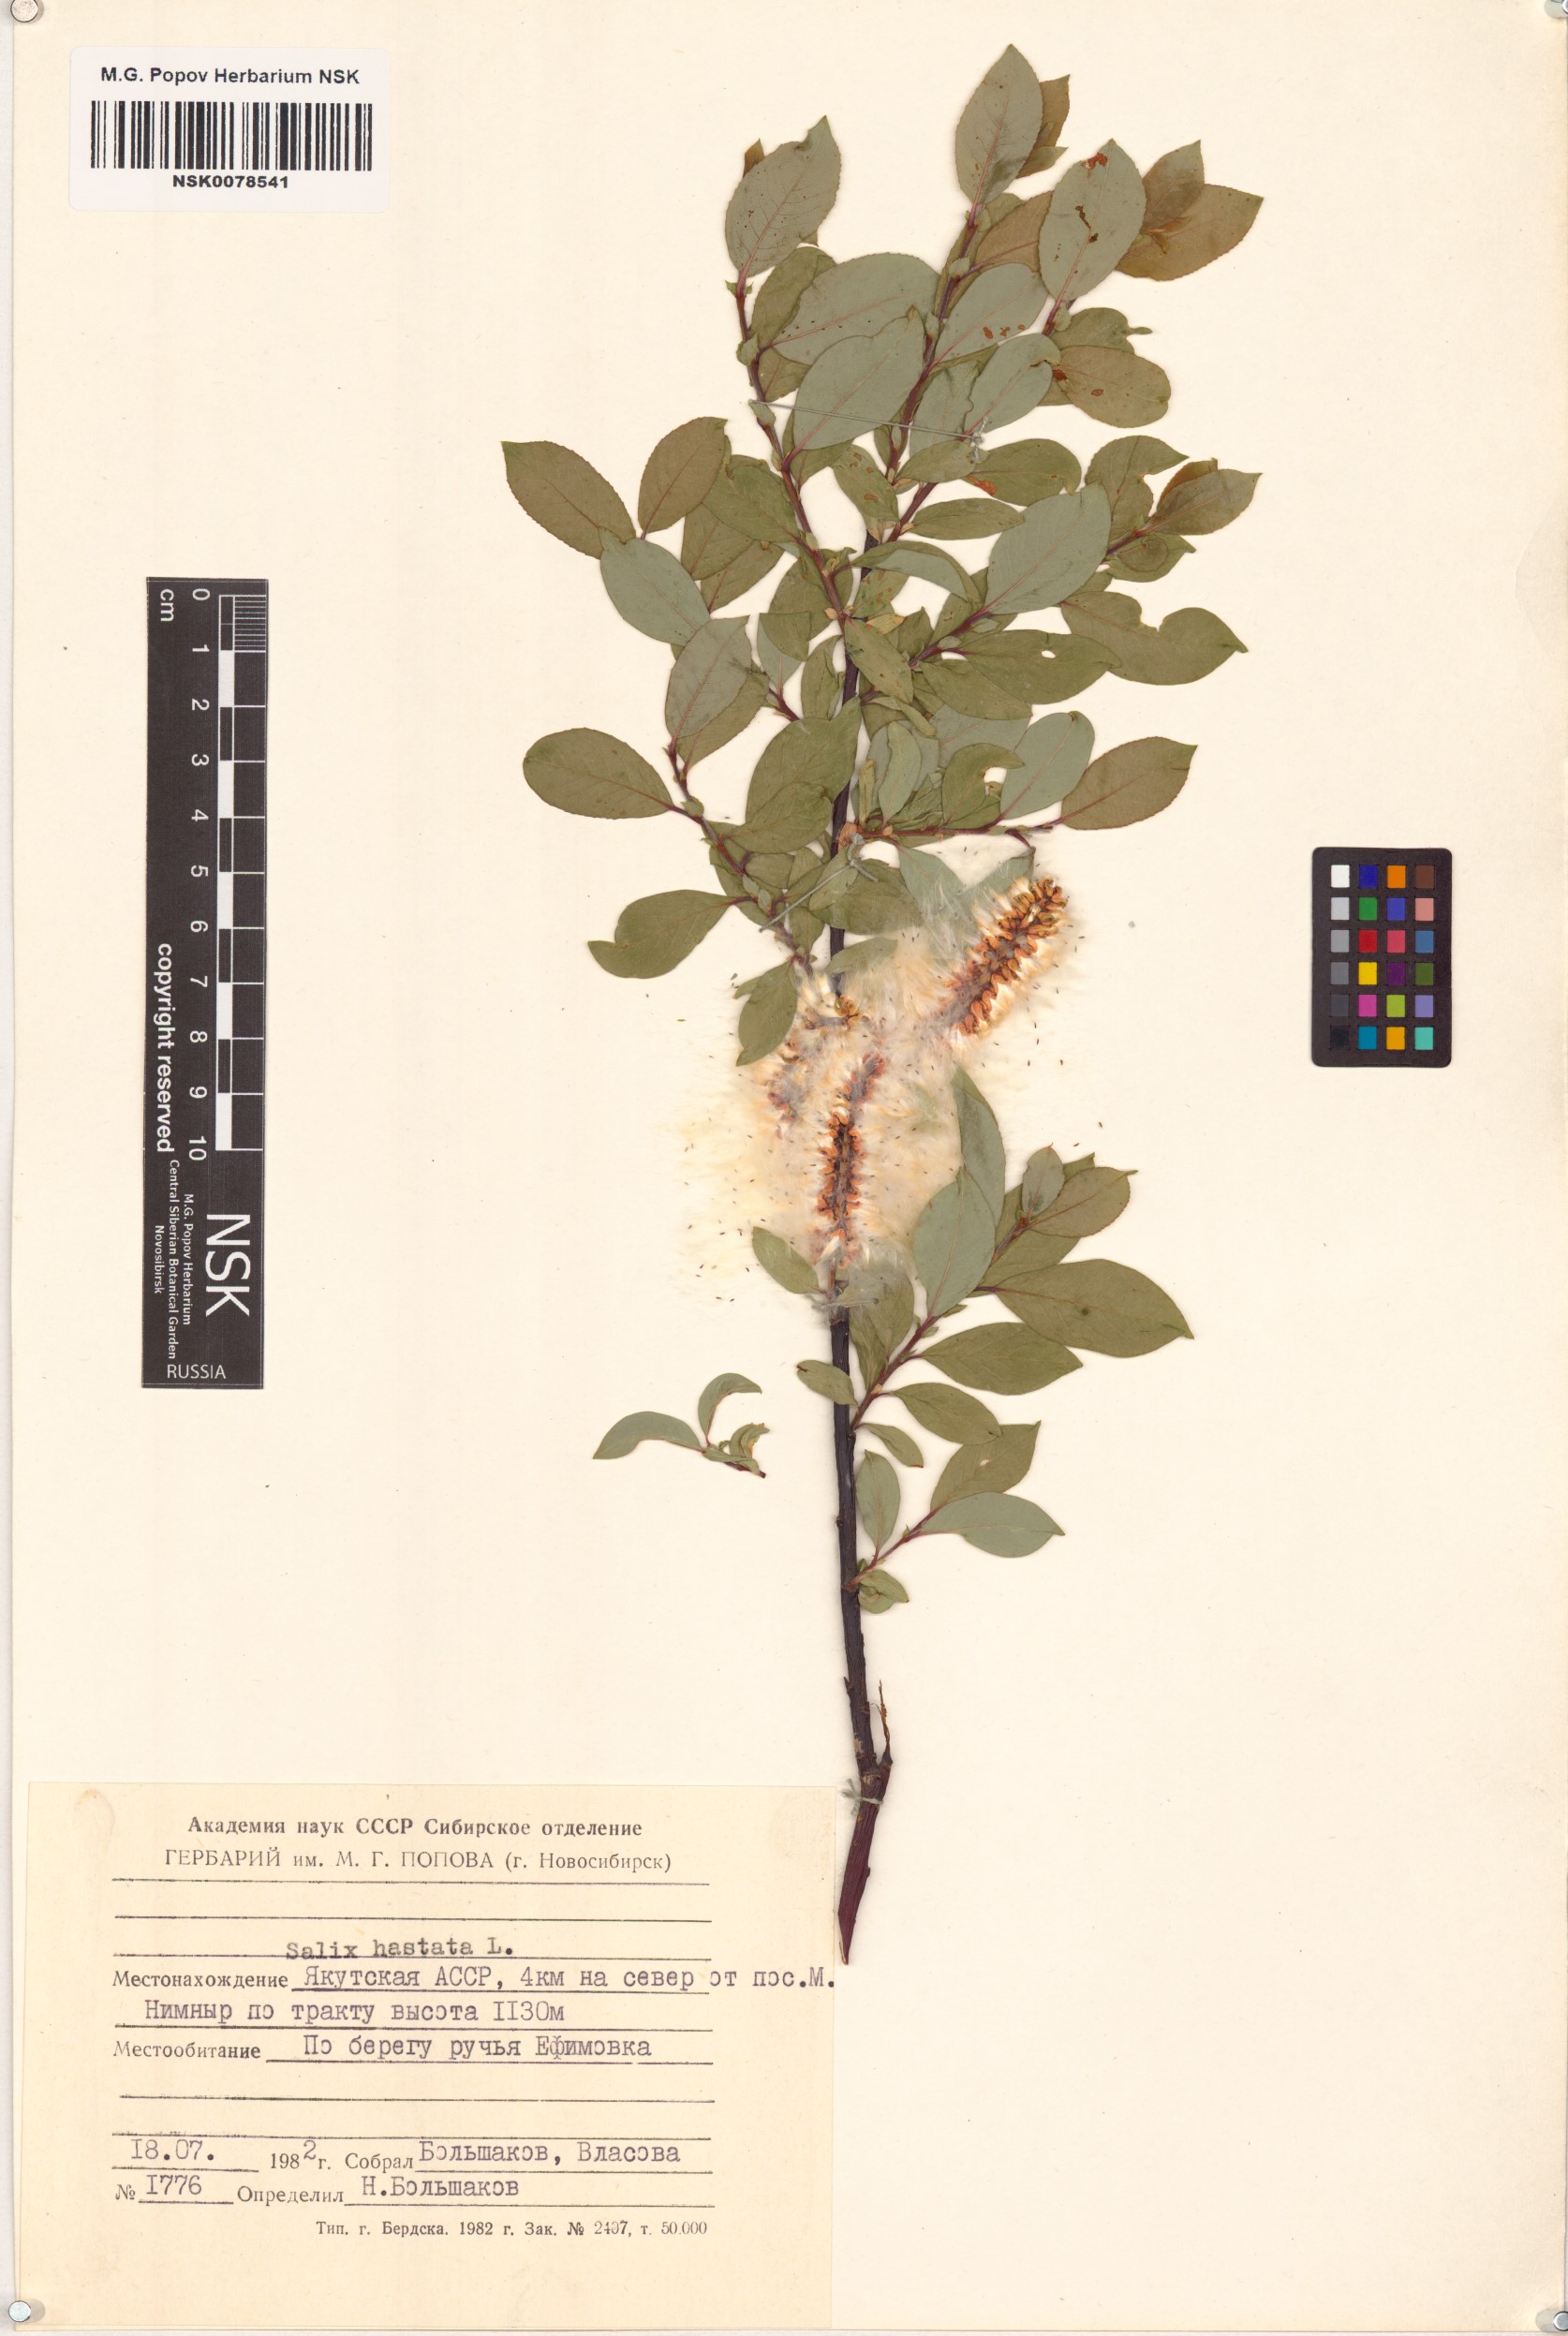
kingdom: Plantae
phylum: Tracheophyta
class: Magnoliopsida
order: Malpighiales
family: Salicaceae
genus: Salix
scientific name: Salix hastata
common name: Halberd willow
